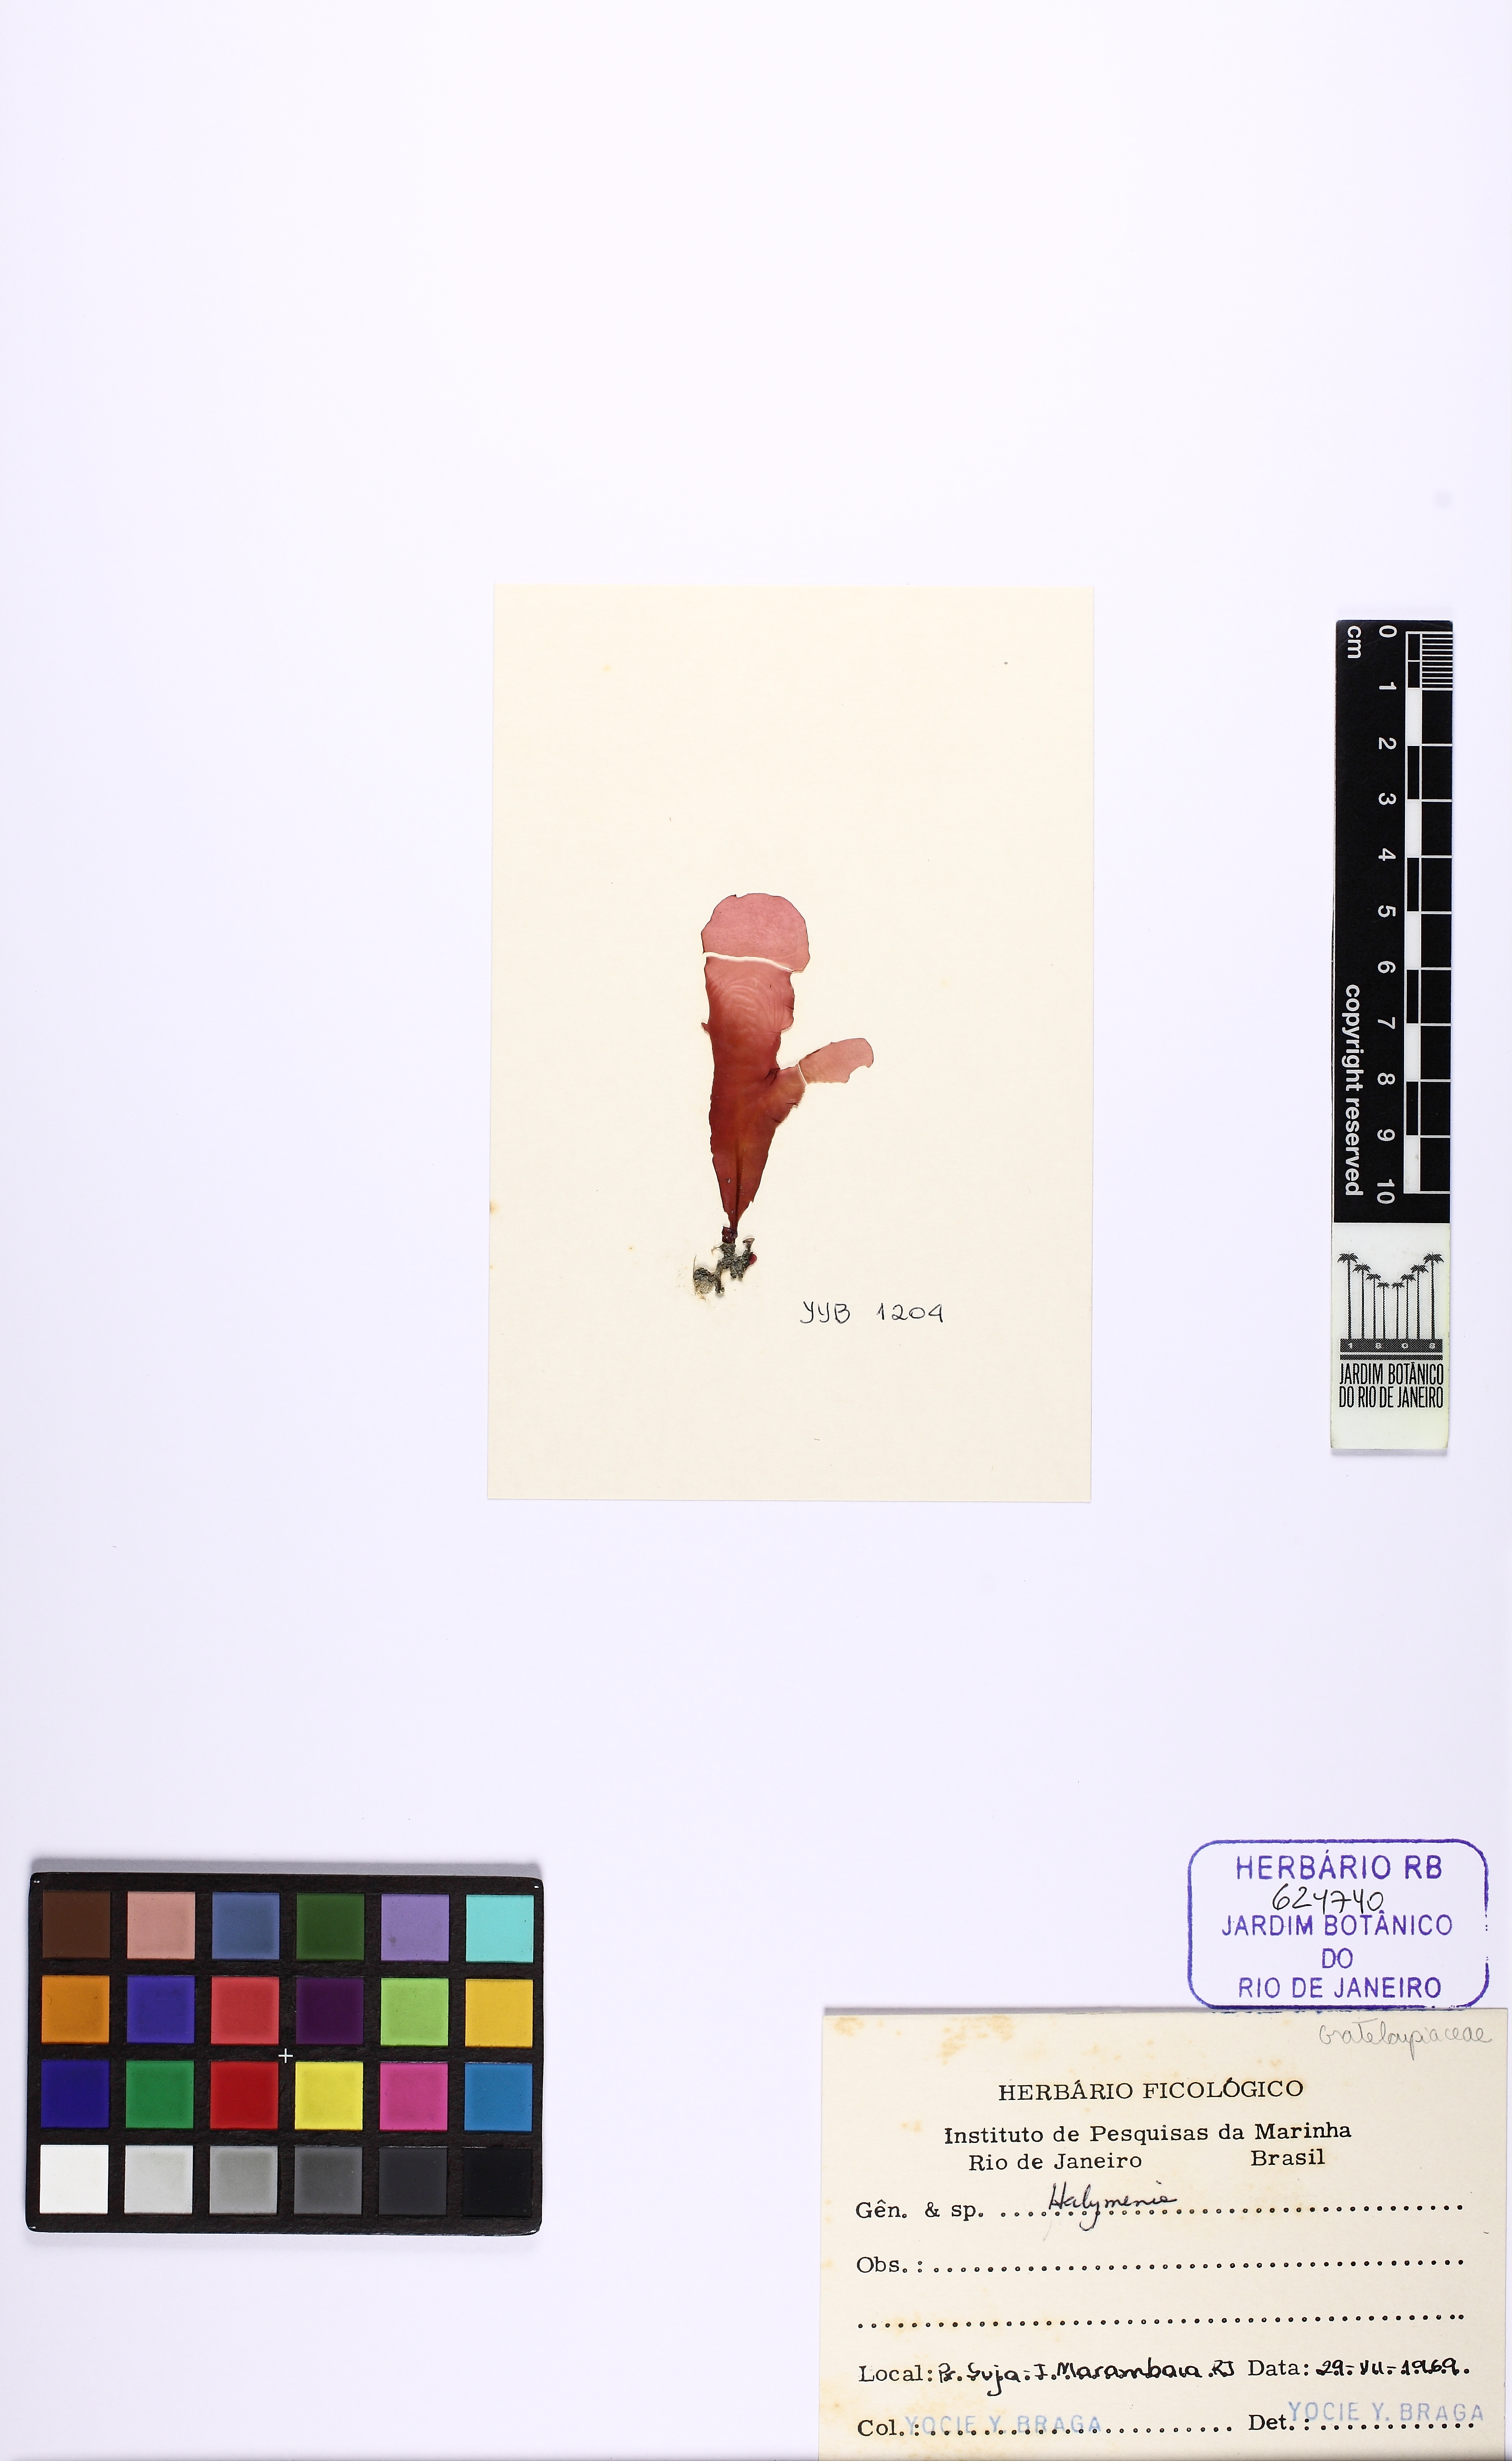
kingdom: Plantae
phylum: Rhodophyta
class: Florideophyceae
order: Halymeniales
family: Halymeniaceae
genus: Halymenia
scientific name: Halymenia
